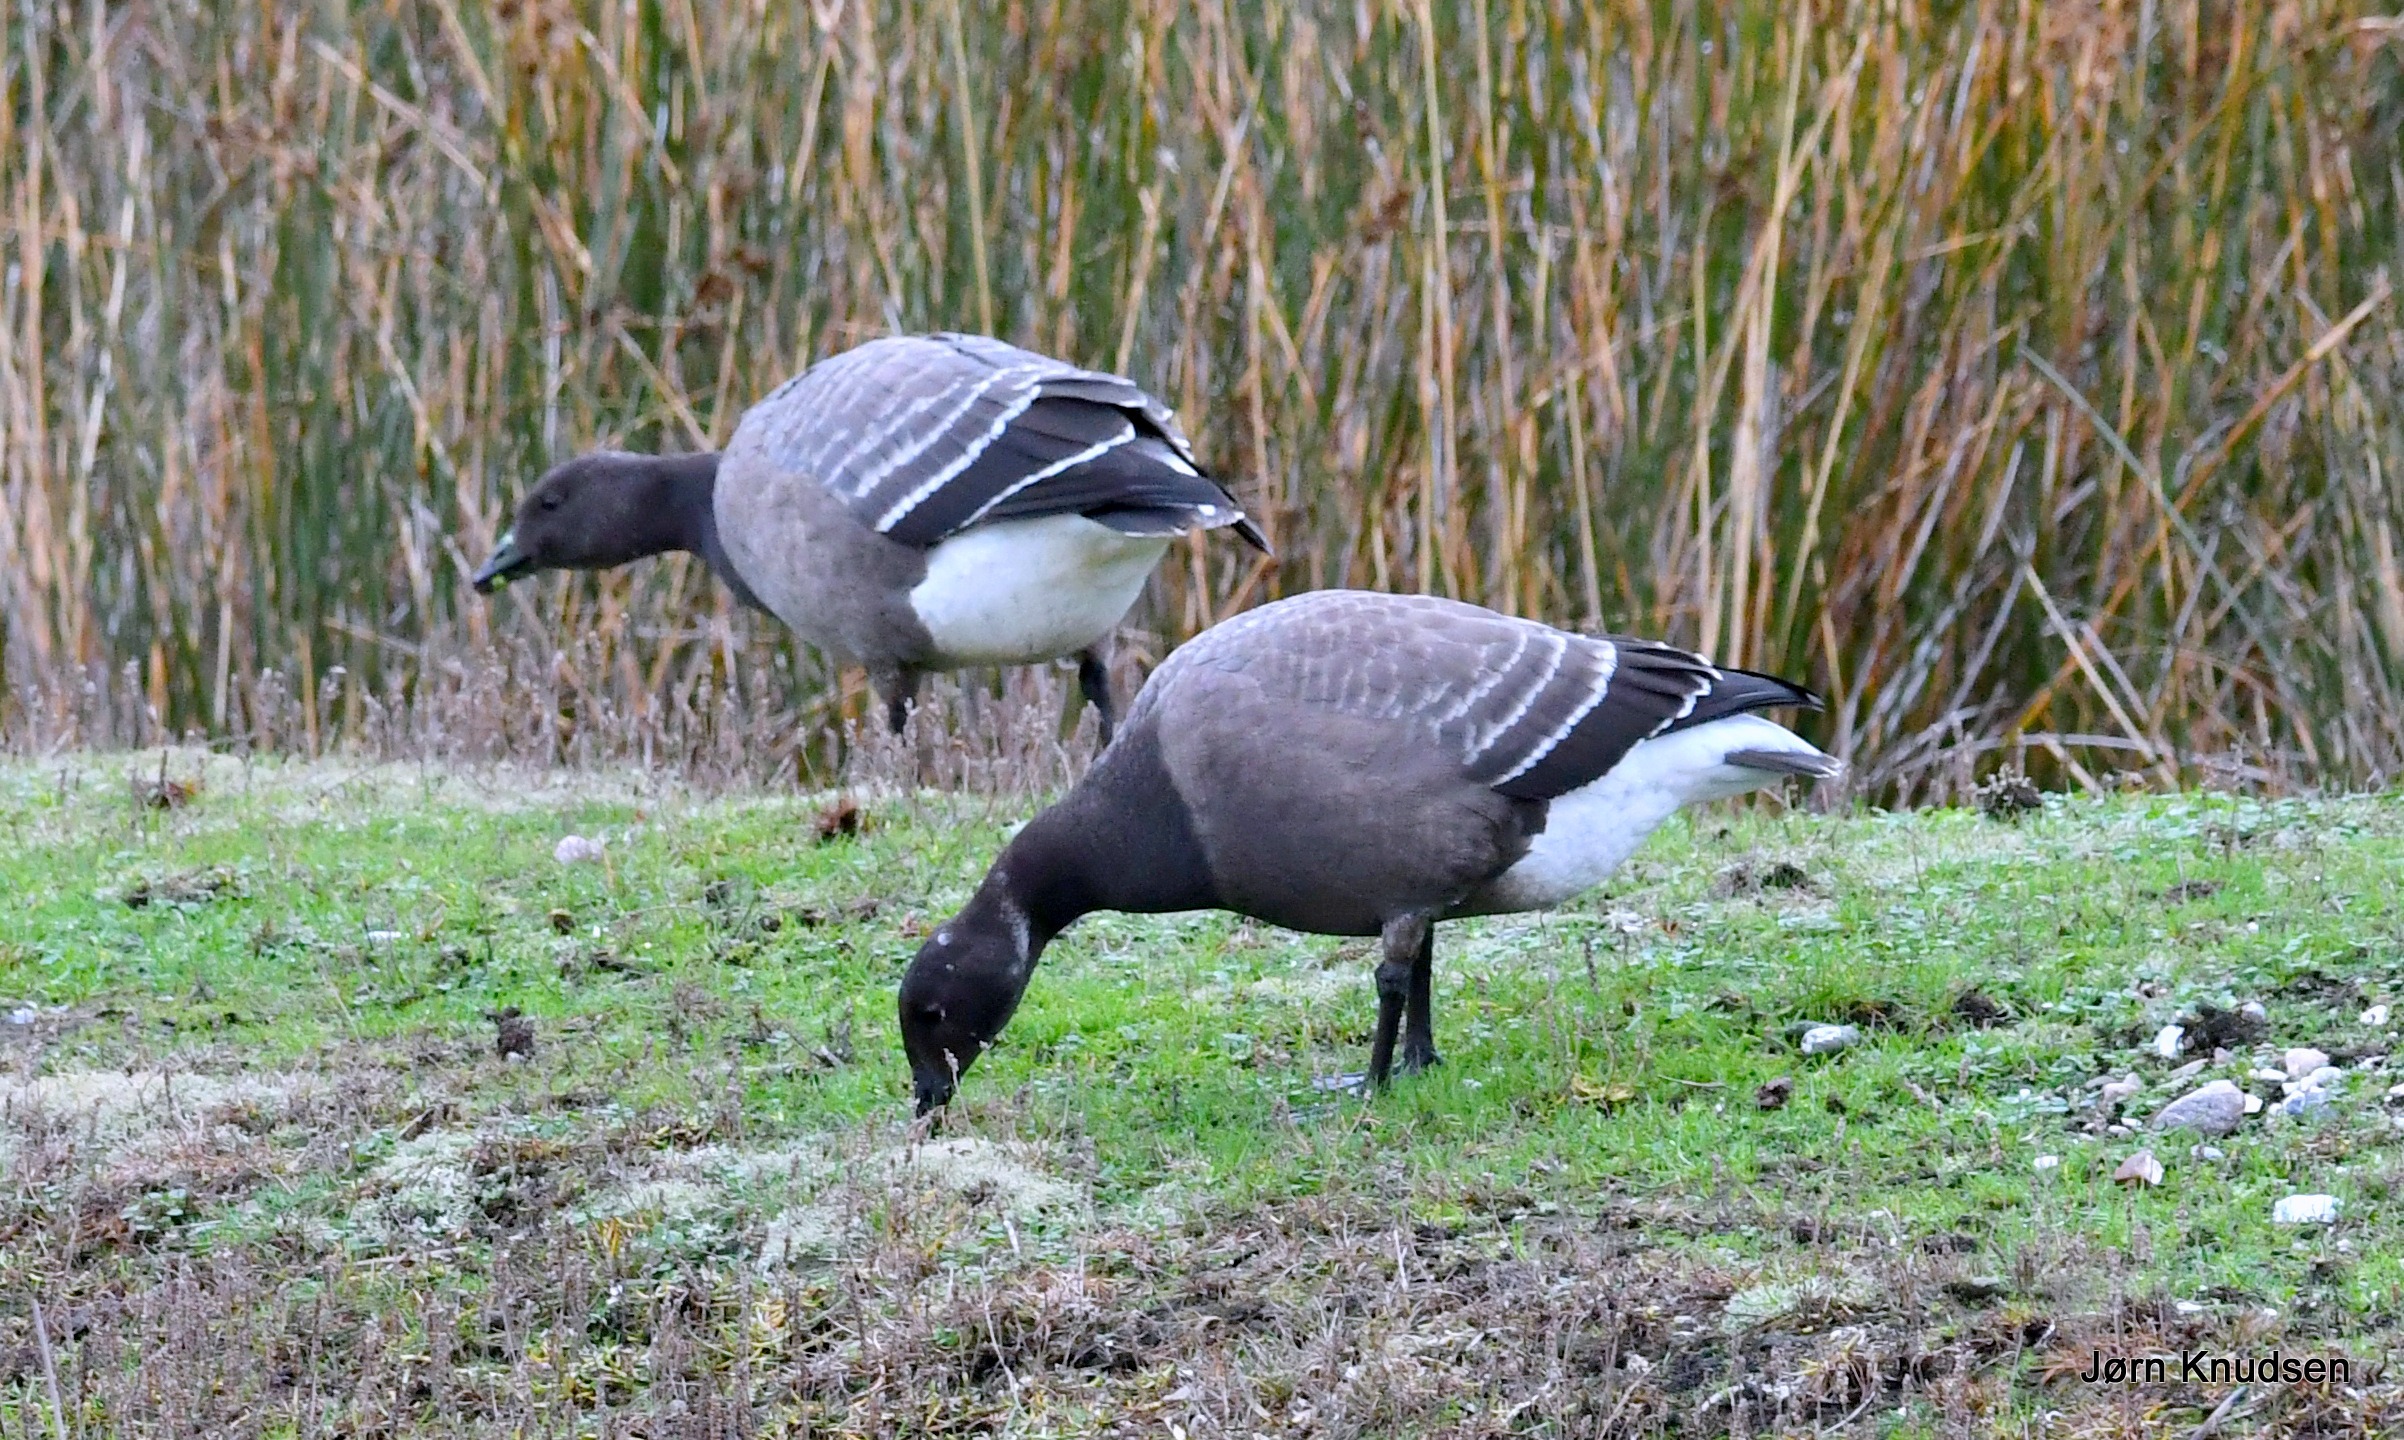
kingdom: Animalia
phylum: Chordata
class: Aves
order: Anseriformes
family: Anatidae
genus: Branta
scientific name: Branta bernicla
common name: Knortegås
